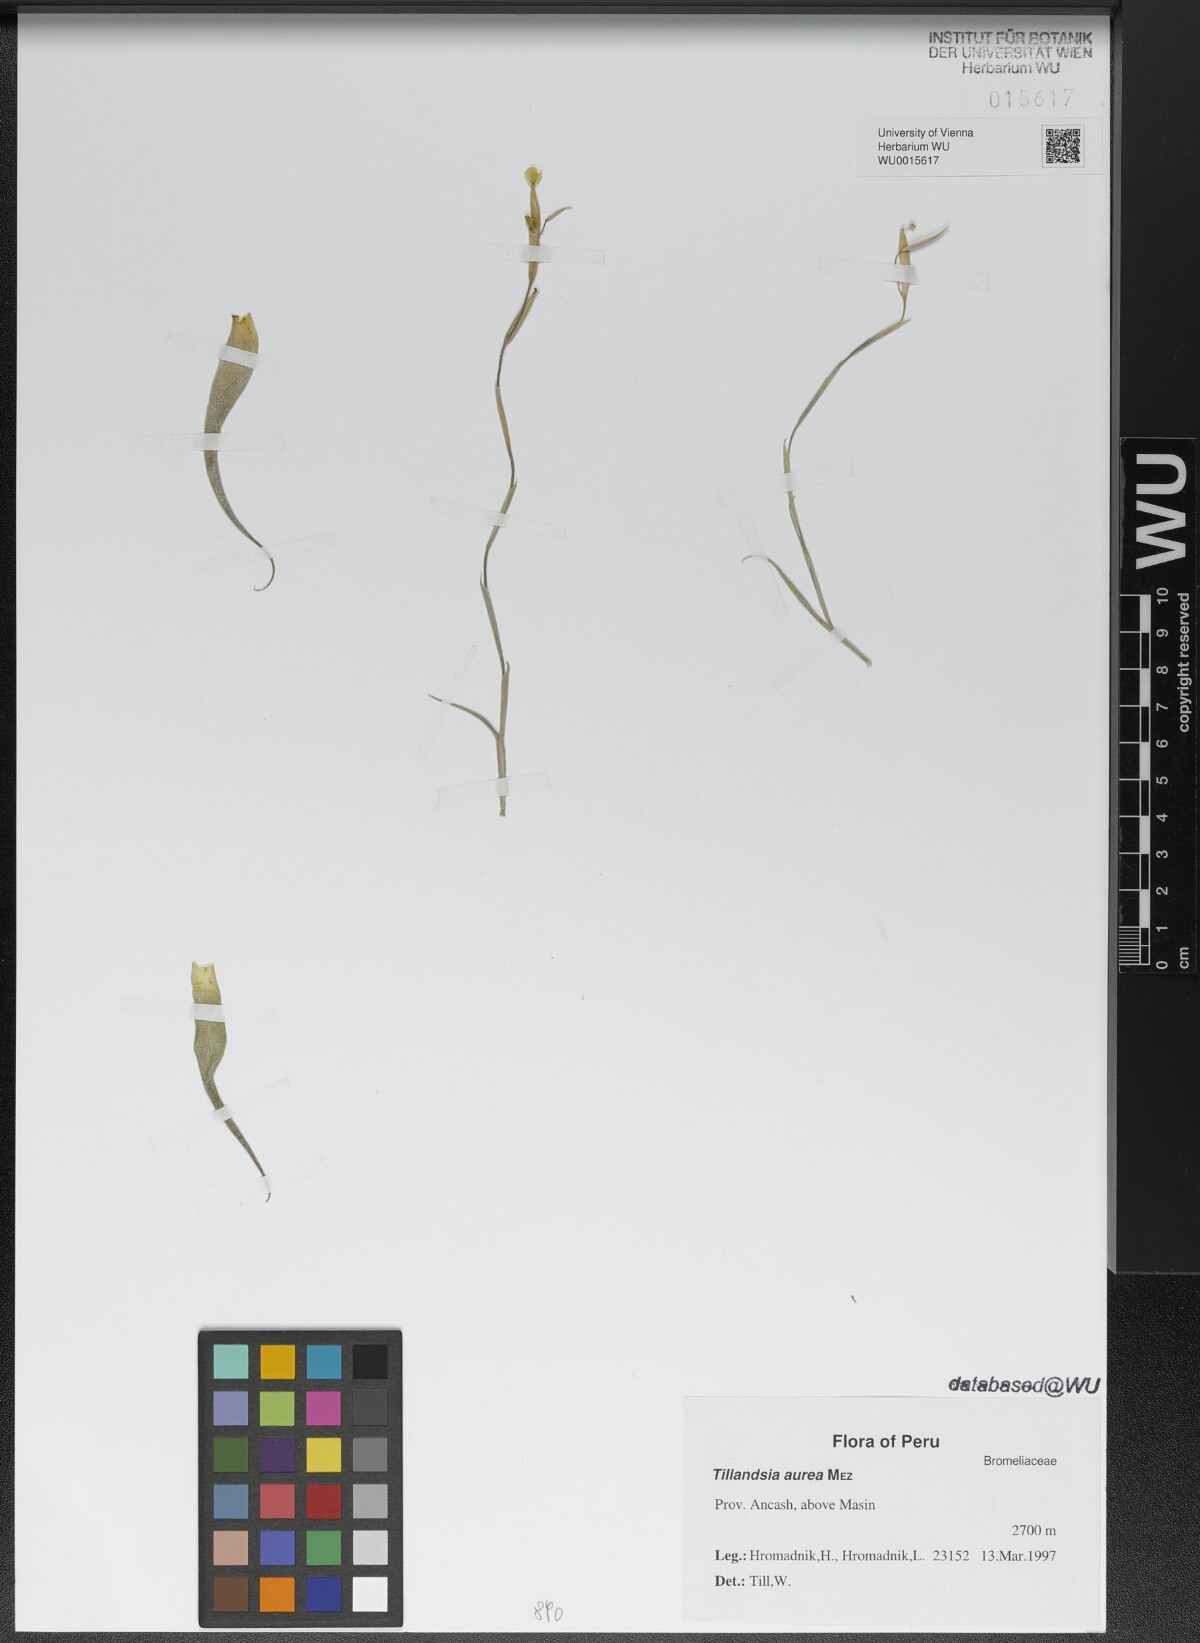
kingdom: Plantae
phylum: Tracheophyta
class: Liliopsida
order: Poales
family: Bromeliaceae
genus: Tillandsia
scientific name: Tillandsia aurea
